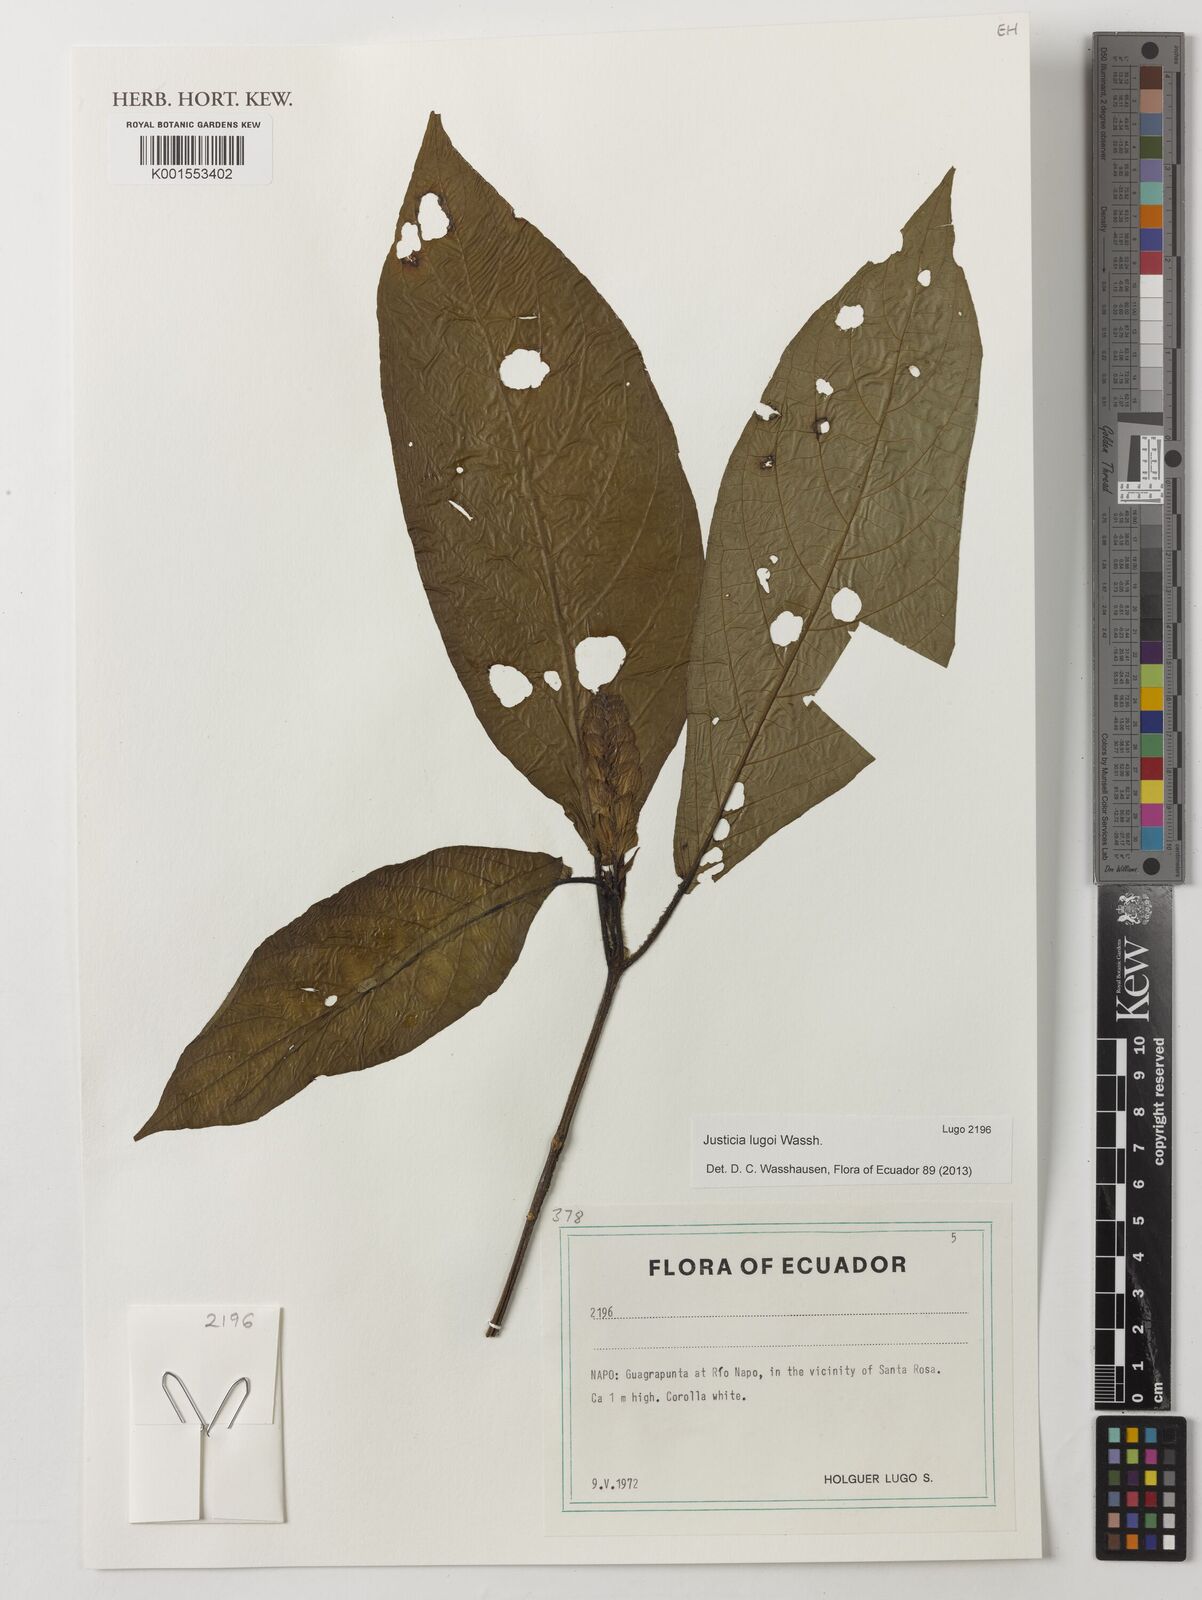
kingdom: Plantae
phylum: Tracheophyta
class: Magnoliopsida
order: Lamiales
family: Acanthaceae
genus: Justicia
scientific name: Justicia lugoi
